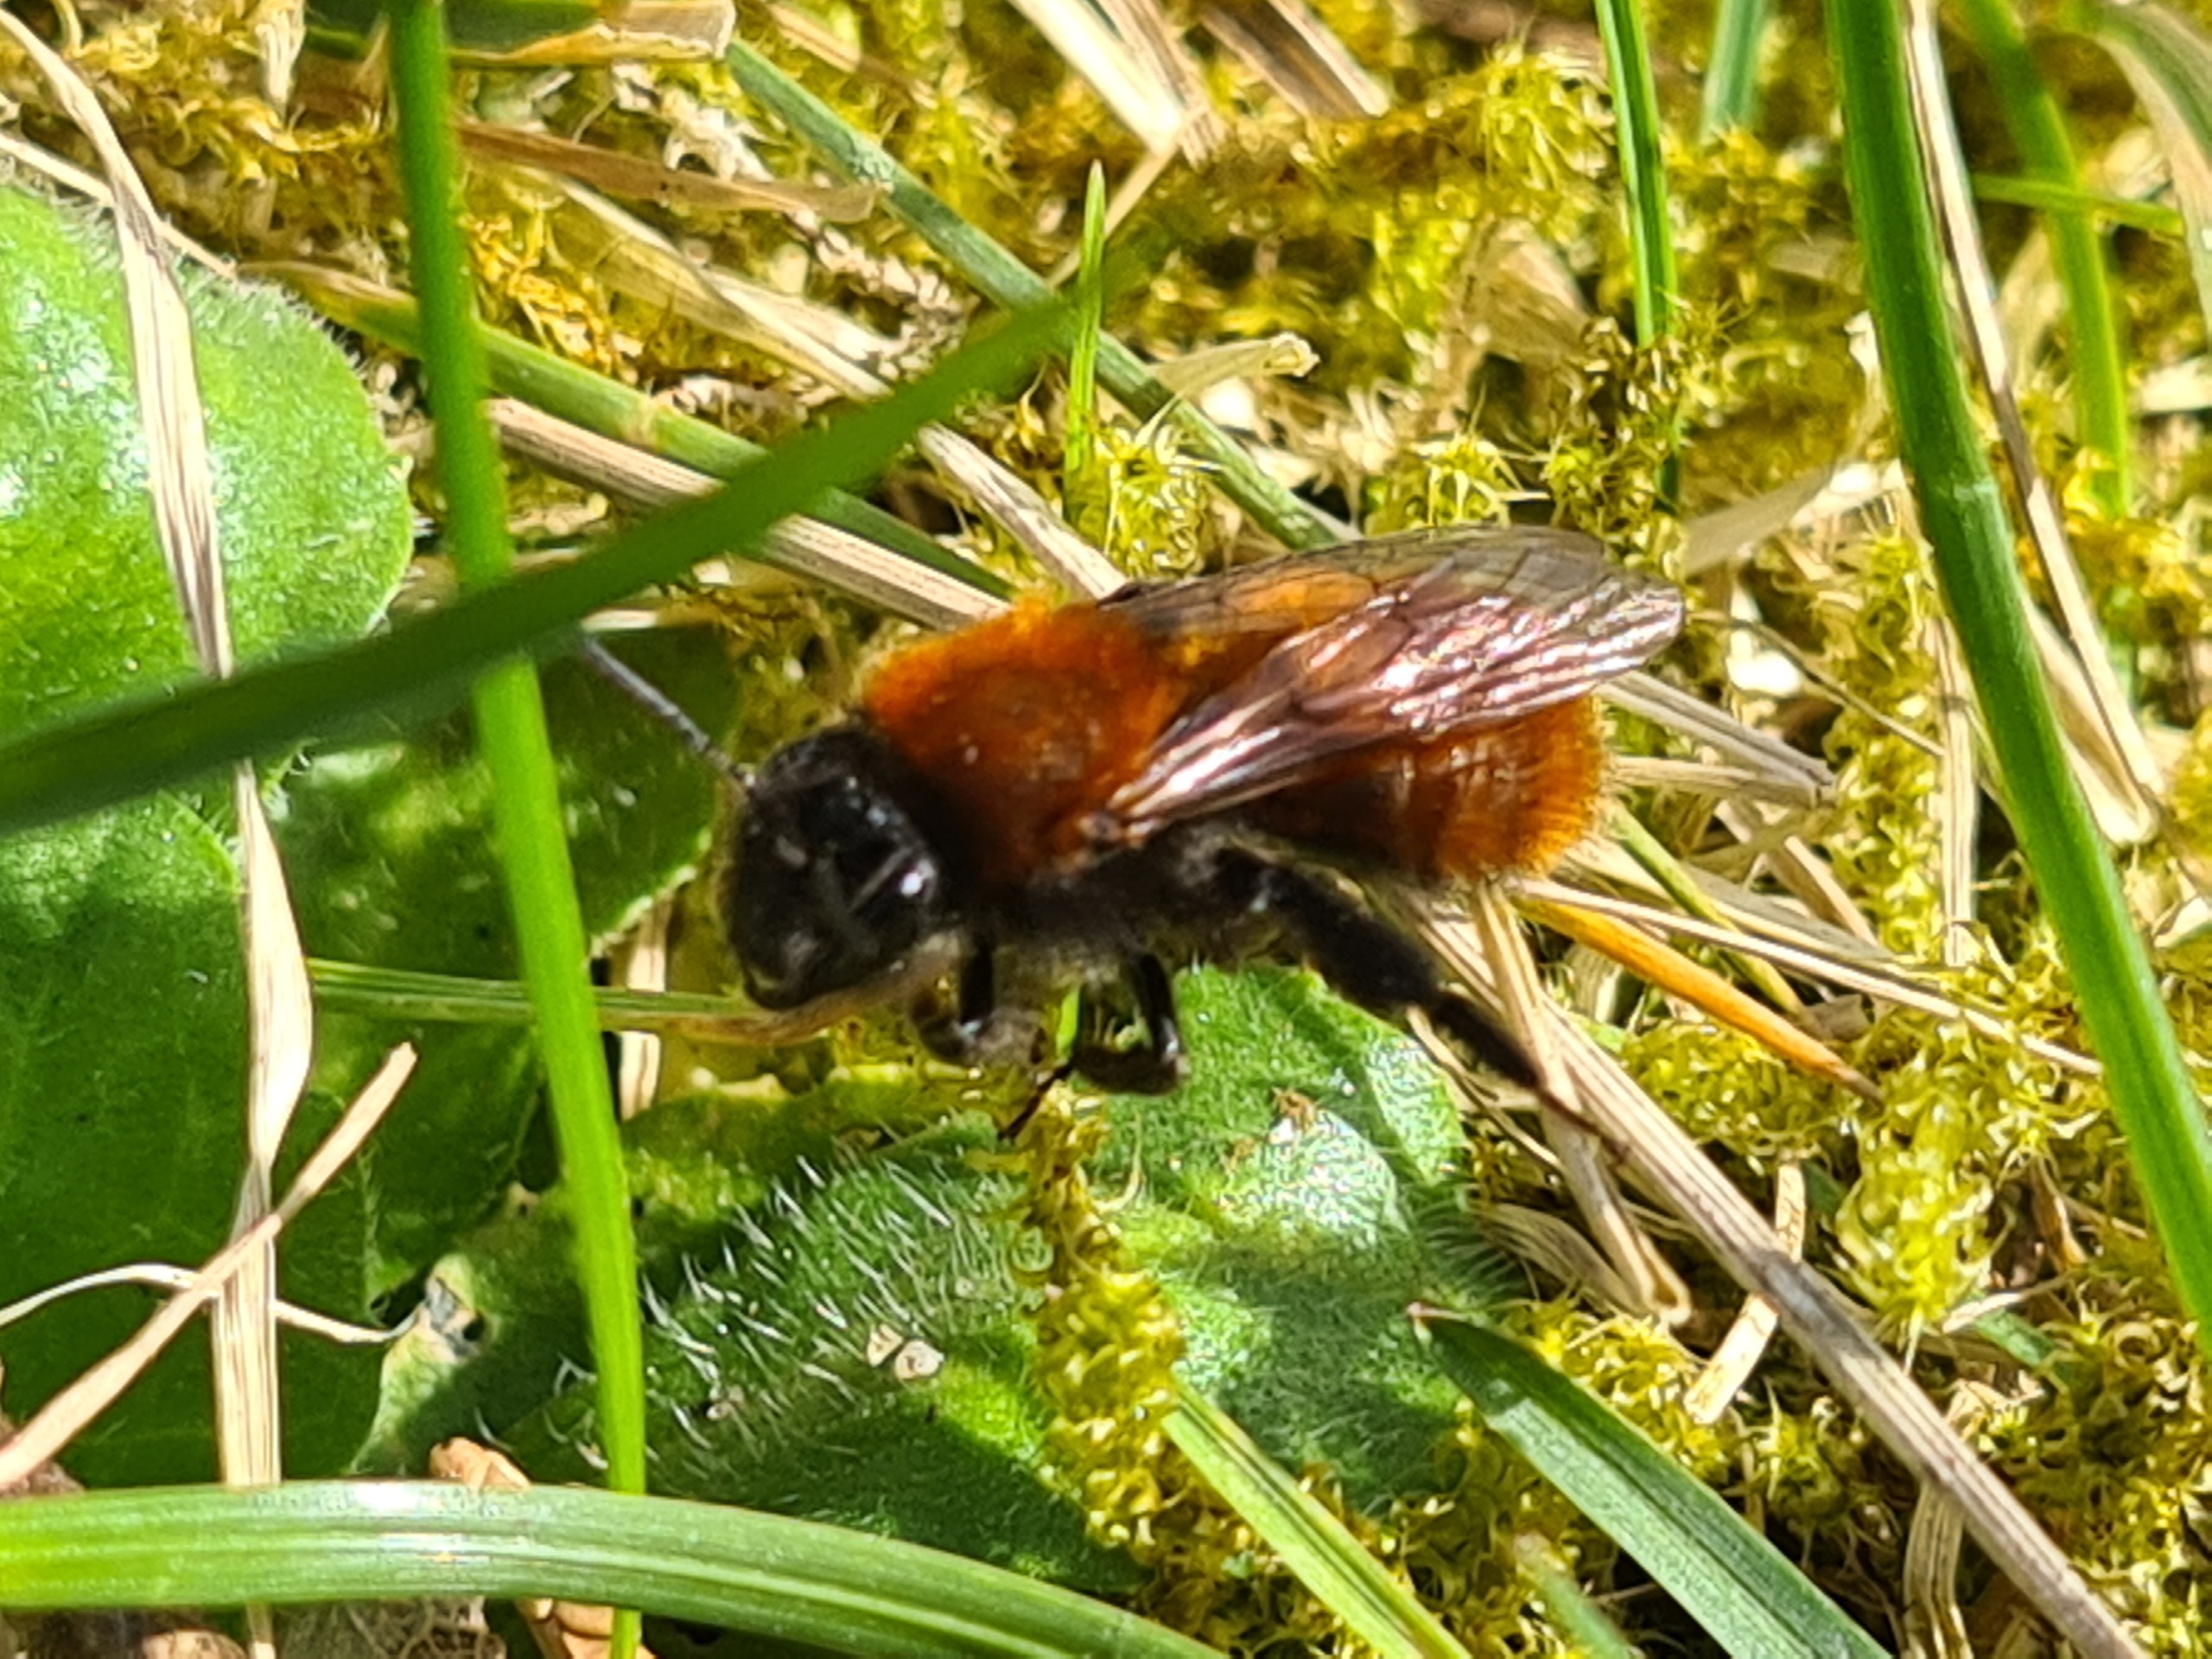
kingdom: Animalia
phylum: Arthropoda
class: Insecta
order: Hymenoptera
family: Andrenidae
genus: Andrena
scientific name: Andrena fulva
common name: Rødpelset jordbi
